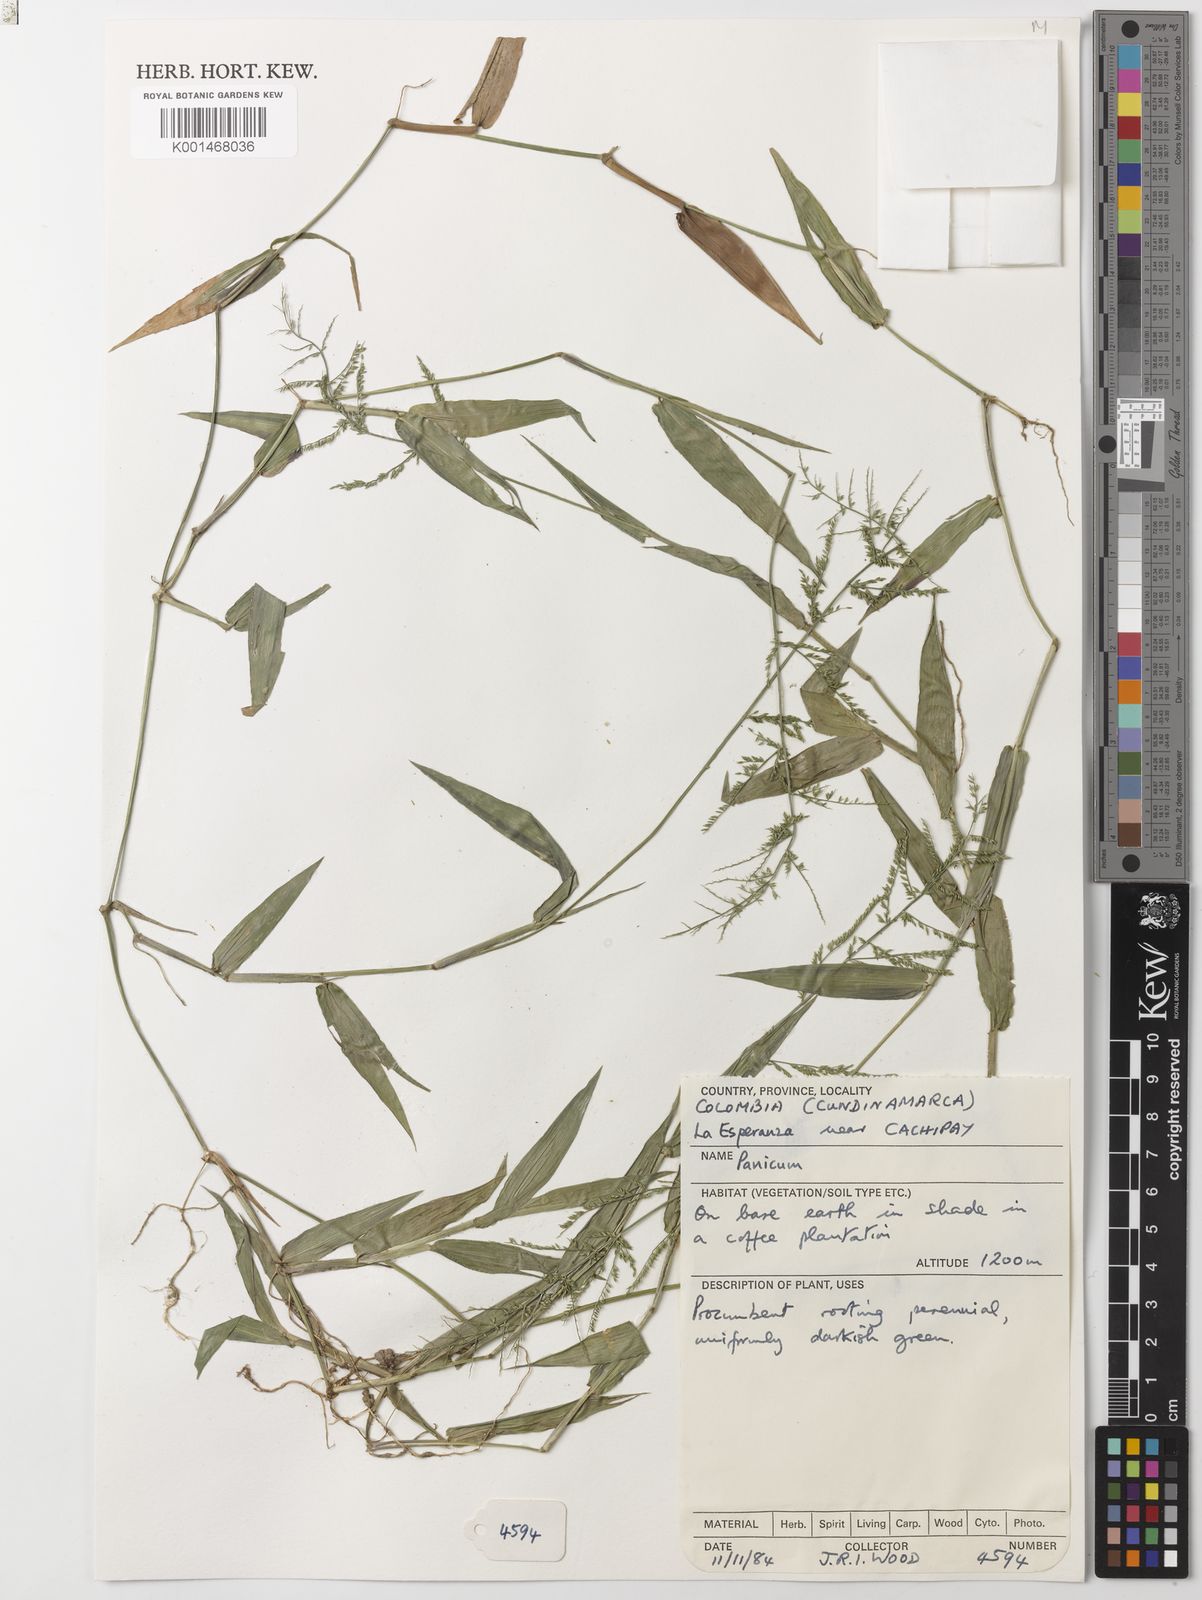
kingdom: Plantae
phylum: Tracheophyta
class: Liliopsida
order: Poales
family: Poaceae
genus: Panicum
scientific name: Panicum
